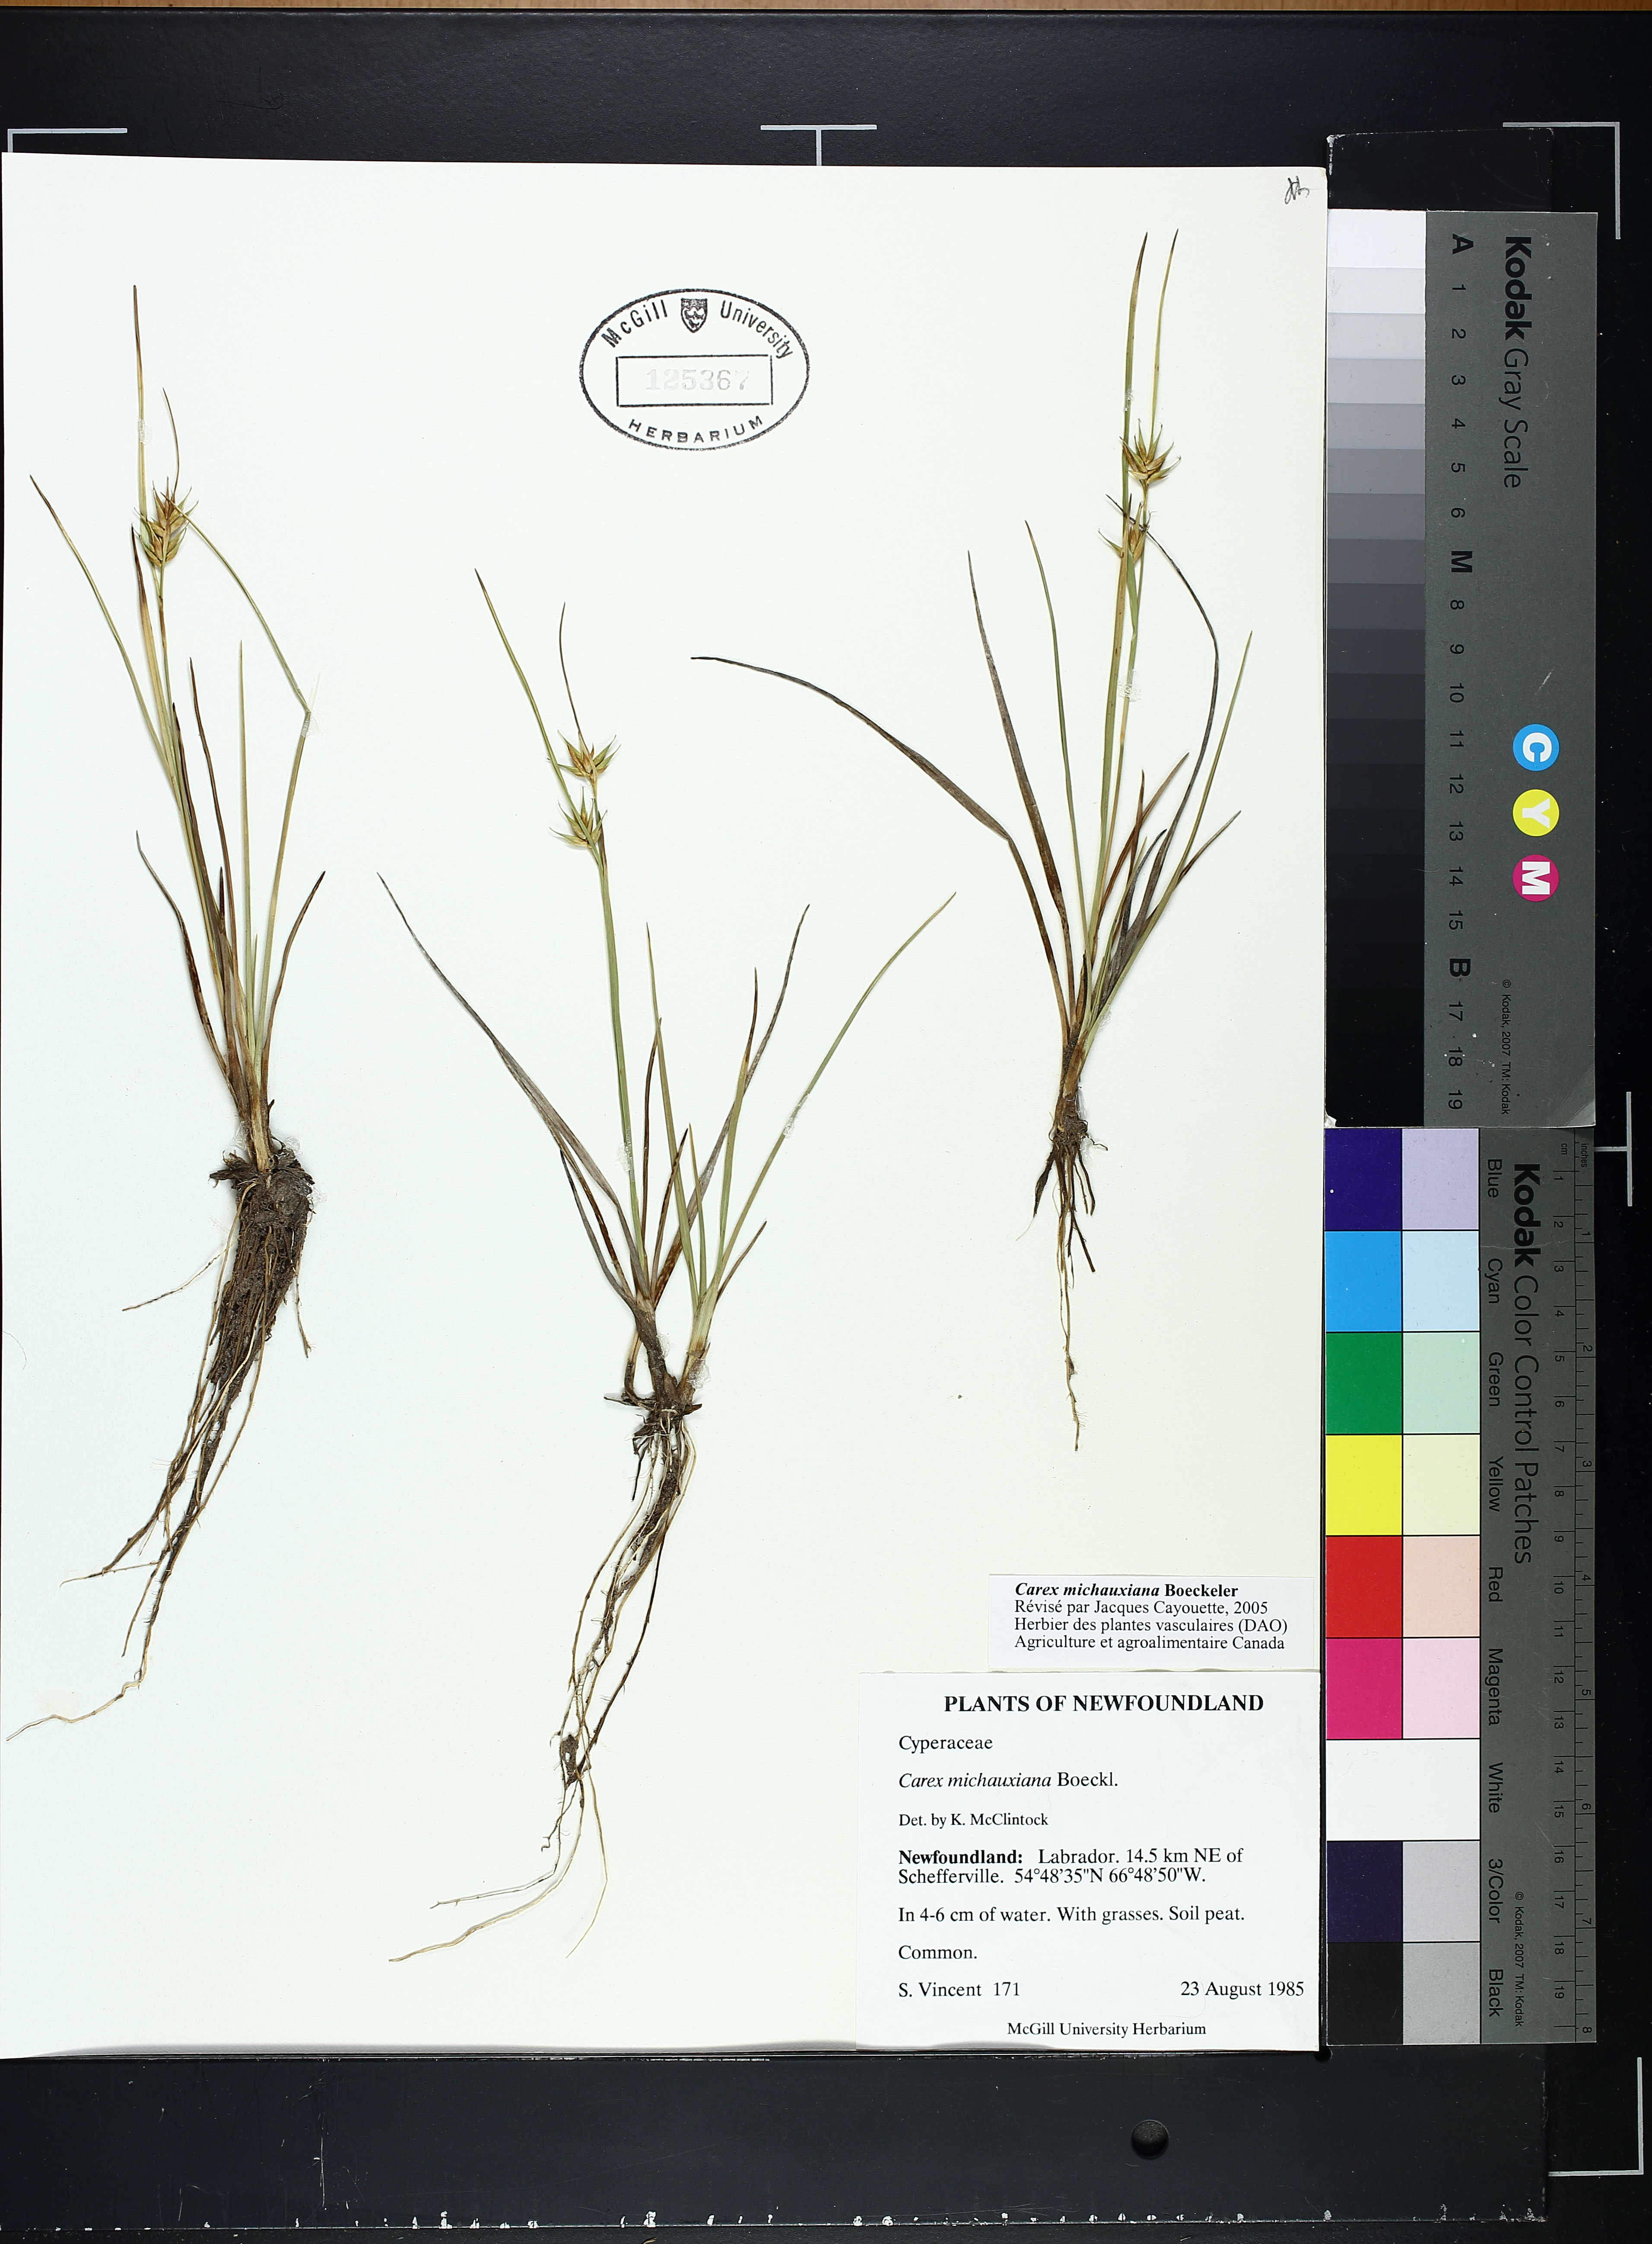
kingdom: Plantae
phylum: Tracheophyta
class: Liliopsida
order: Poales
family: Cyperaceae
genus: Carex
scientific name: Carex michauxiana
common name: Michaux's sedge
